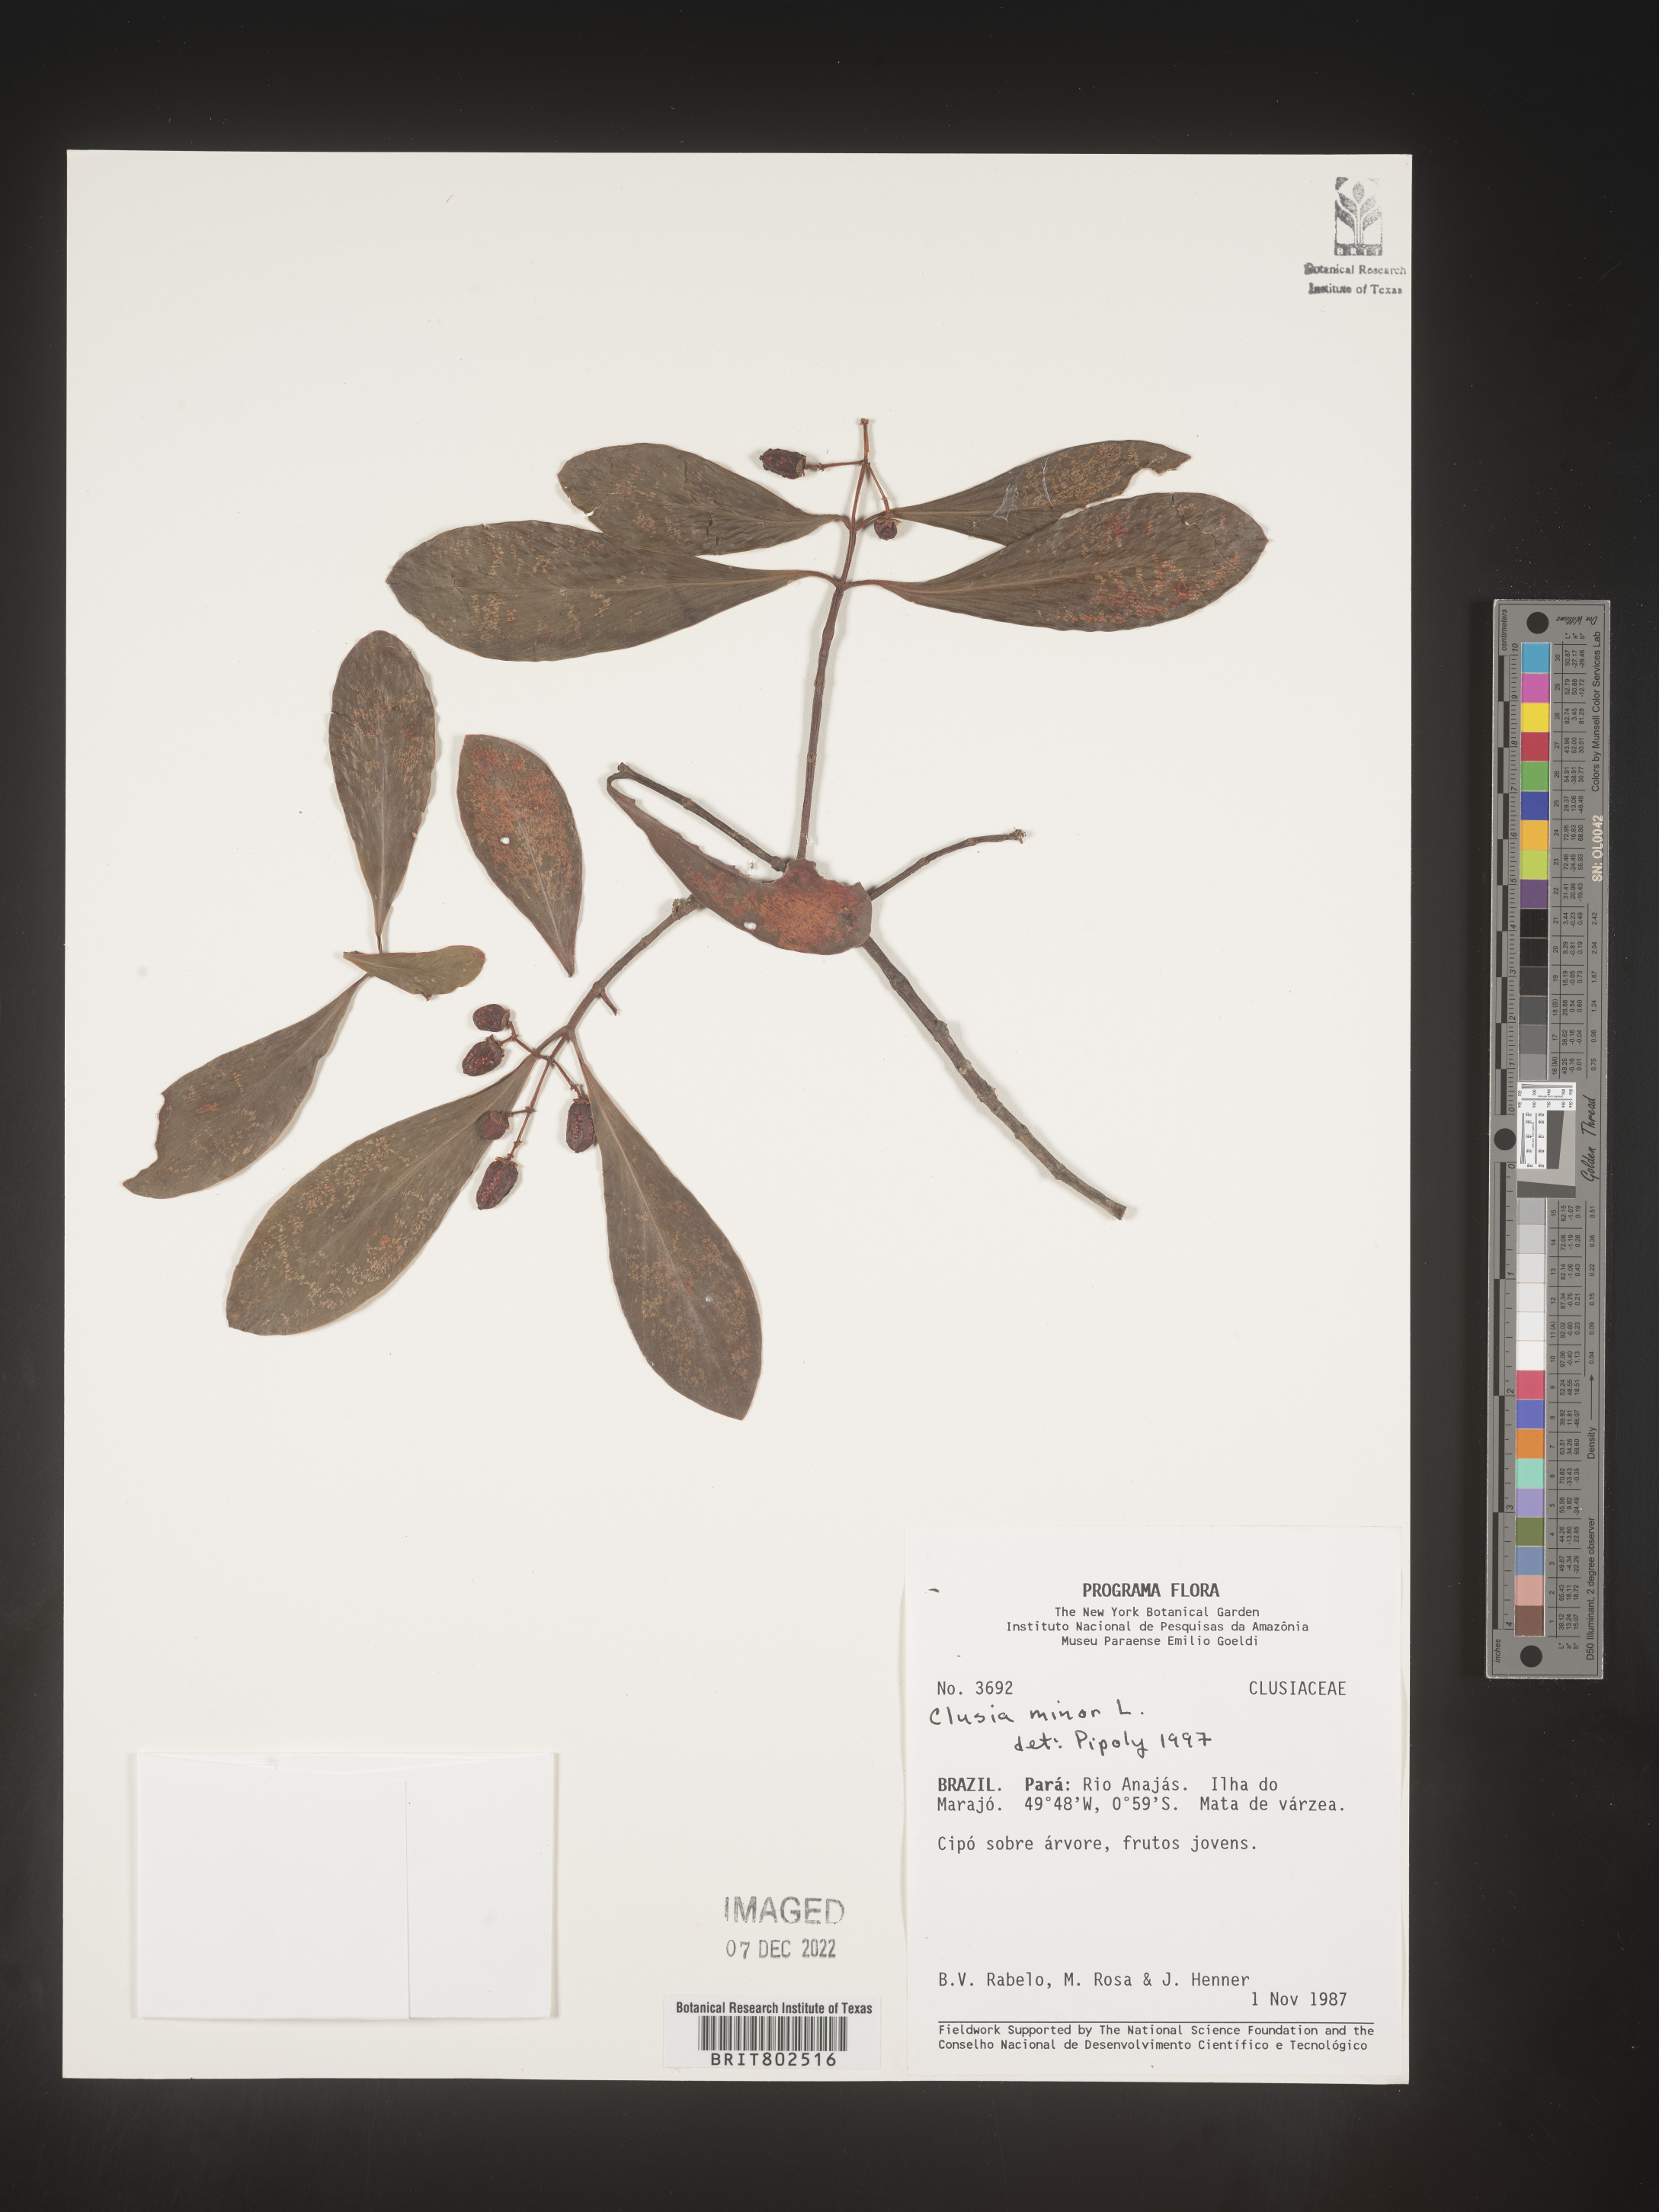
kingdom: Plantae
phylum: Tracheophyta
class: Magnoliopsida
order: Malpighiales
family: Clusiaceae
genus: Clusia
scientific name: Clusia minor
